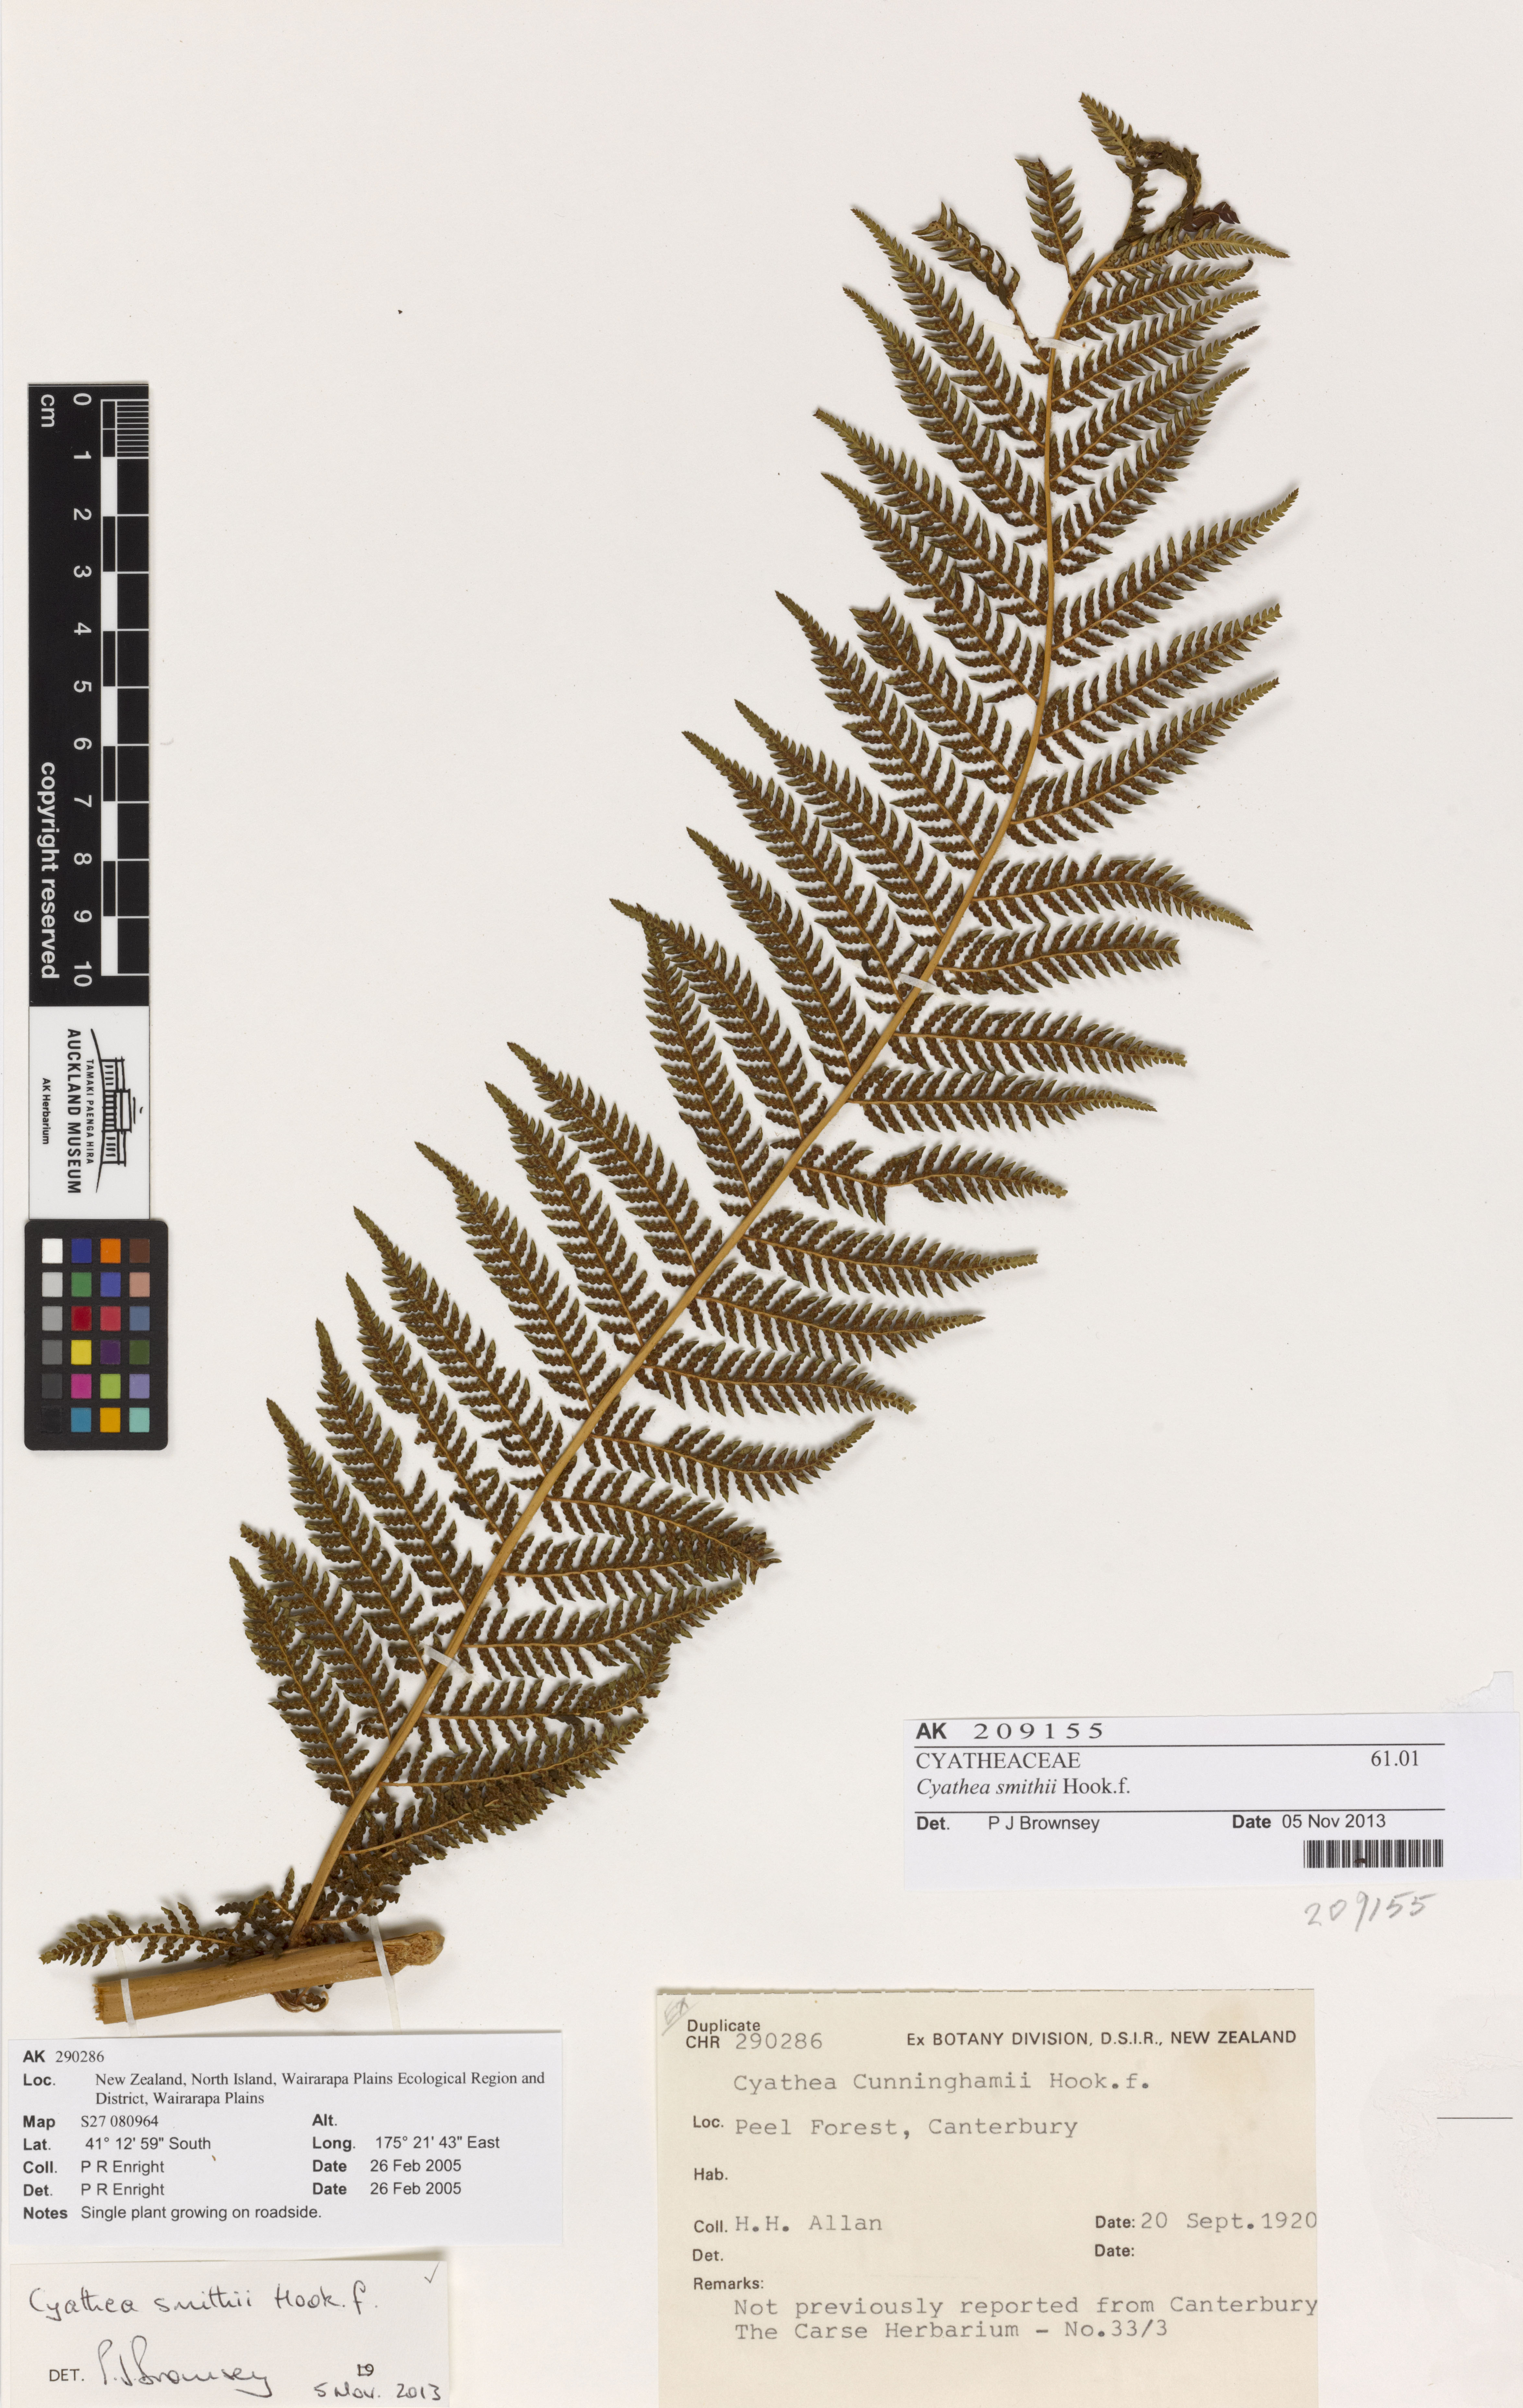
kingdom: Plantae
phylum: Tracheophyta
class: Polypodiopsida
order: Cyatheales
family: Cyatheaceae
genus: Alsophila
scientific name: Alsophila smithii
